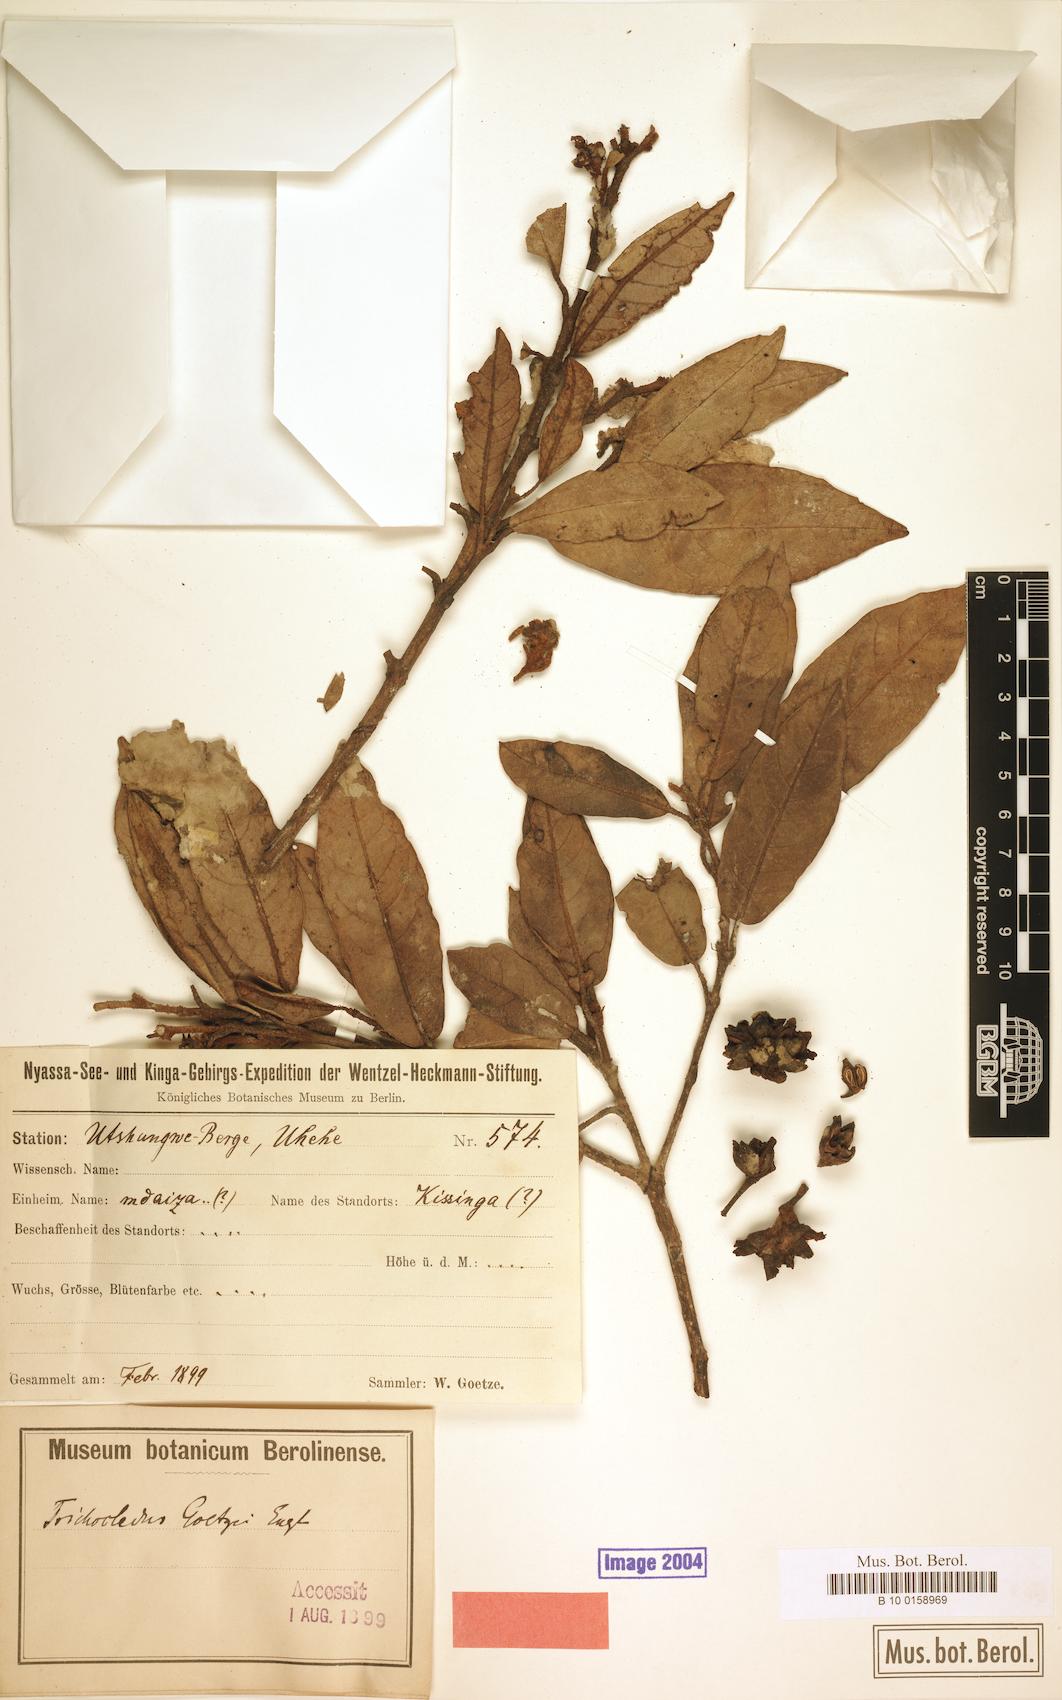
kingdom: Plantae
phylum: Tracheophyta
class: Magnoliopsida
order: Saxifragales
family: Hamamelidaceae
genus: Trichocladus
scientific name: Trichocladus goetzei
